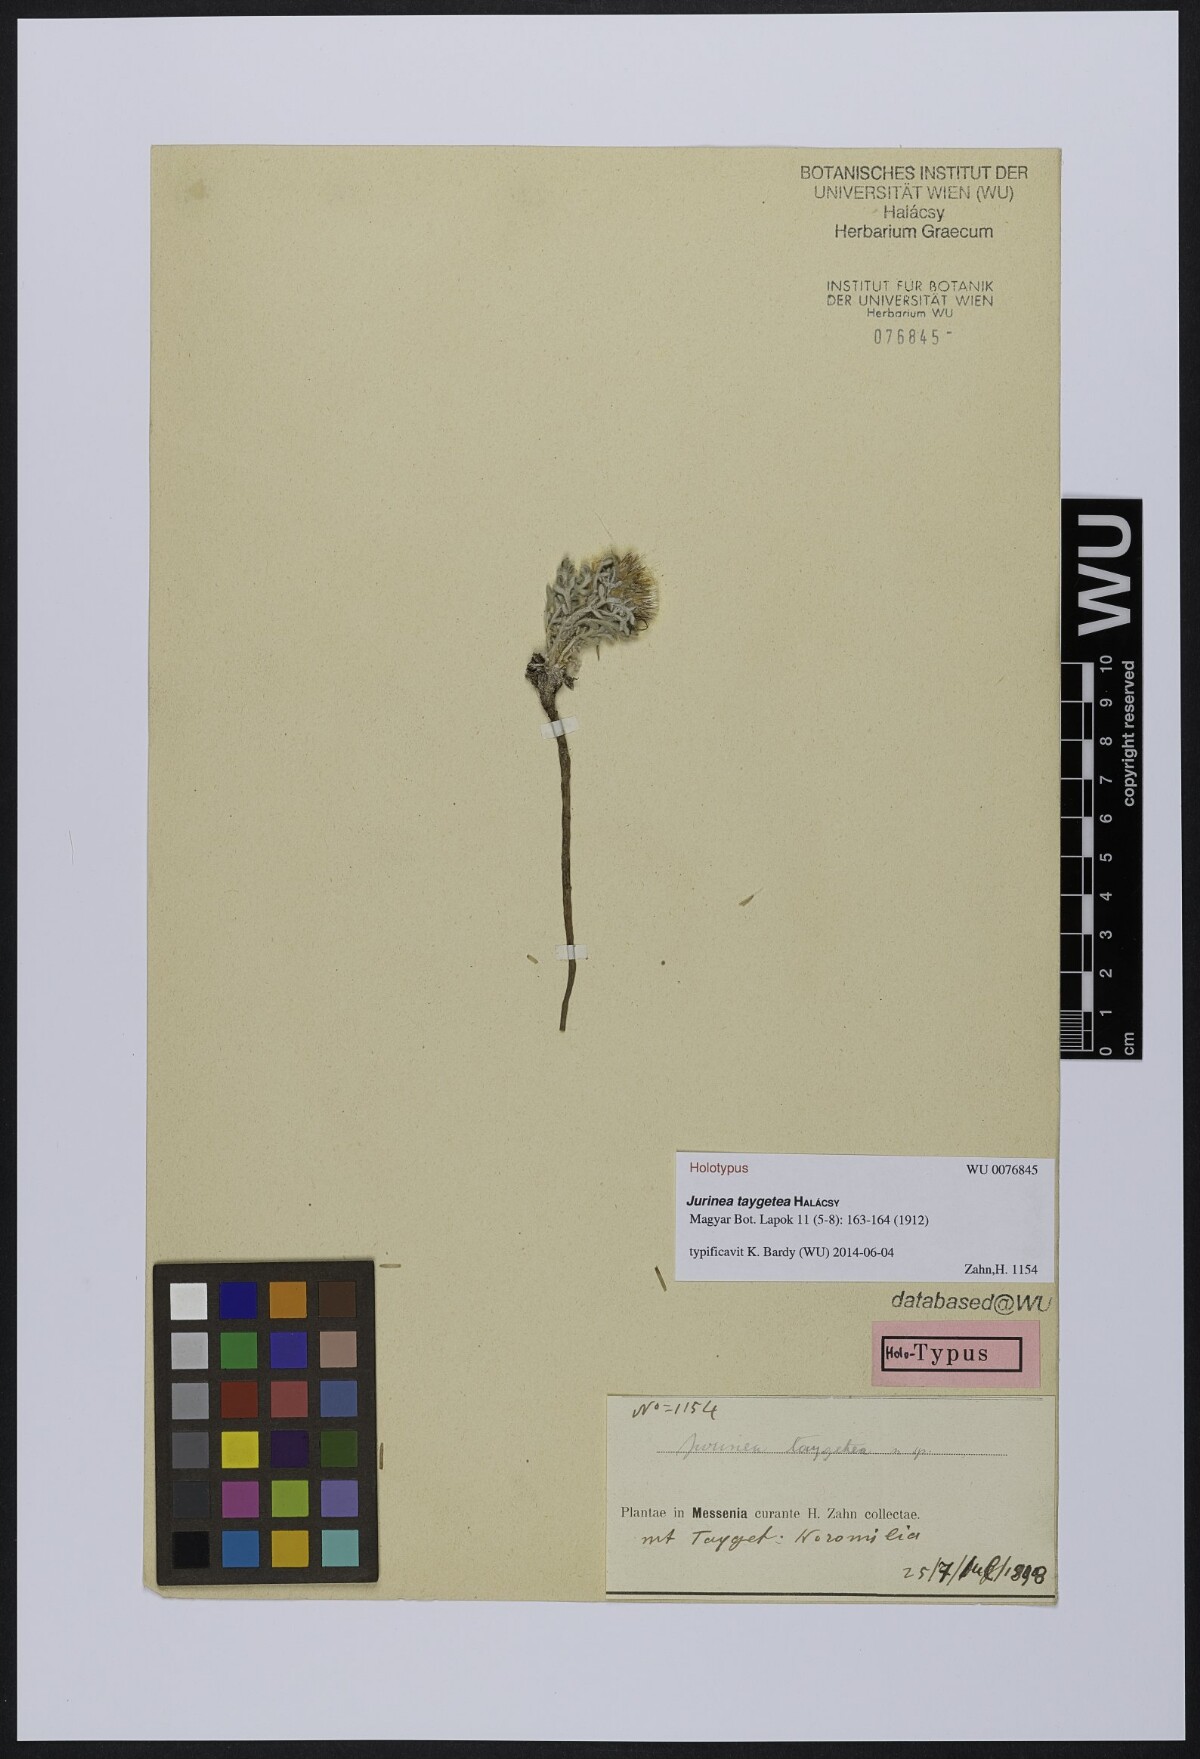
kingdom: Plantae
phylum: Tracheophyta
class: Magnoliopsida
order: Asterales
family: Asteraceae
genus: Jurinea
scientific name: Jurinea taygetea
